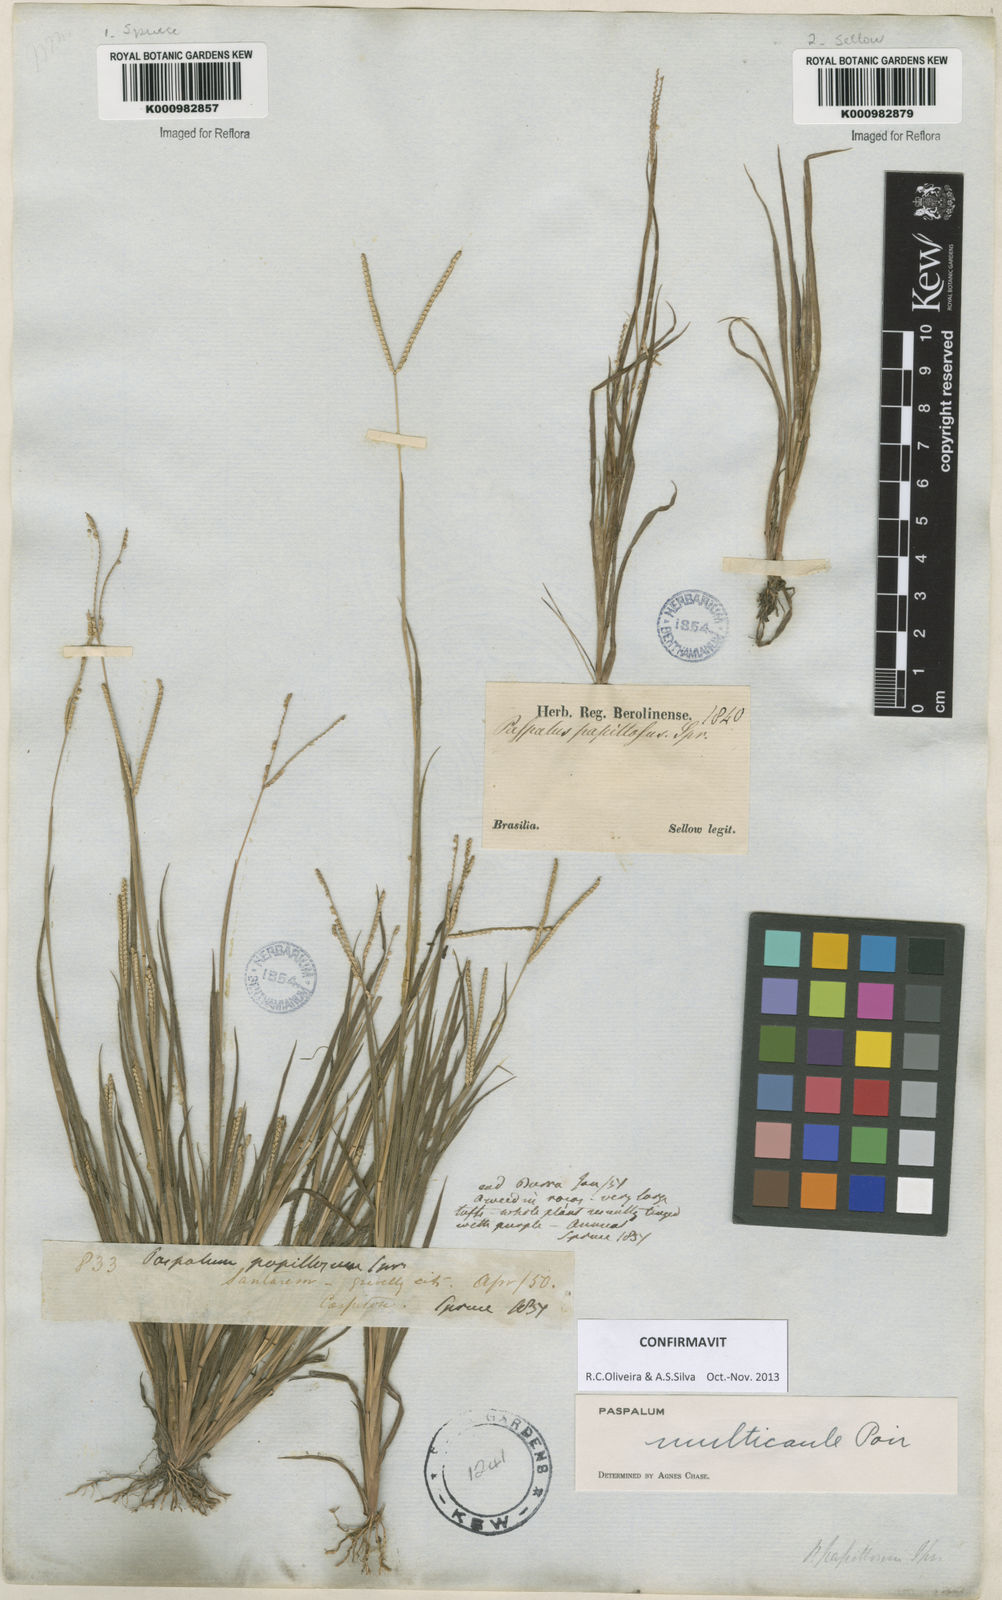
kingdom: Plantae
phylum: Tracheophyta
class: Liliopsida
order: Poales
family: Poaceae
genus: Paspalum
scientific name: Paspalum multicaule
